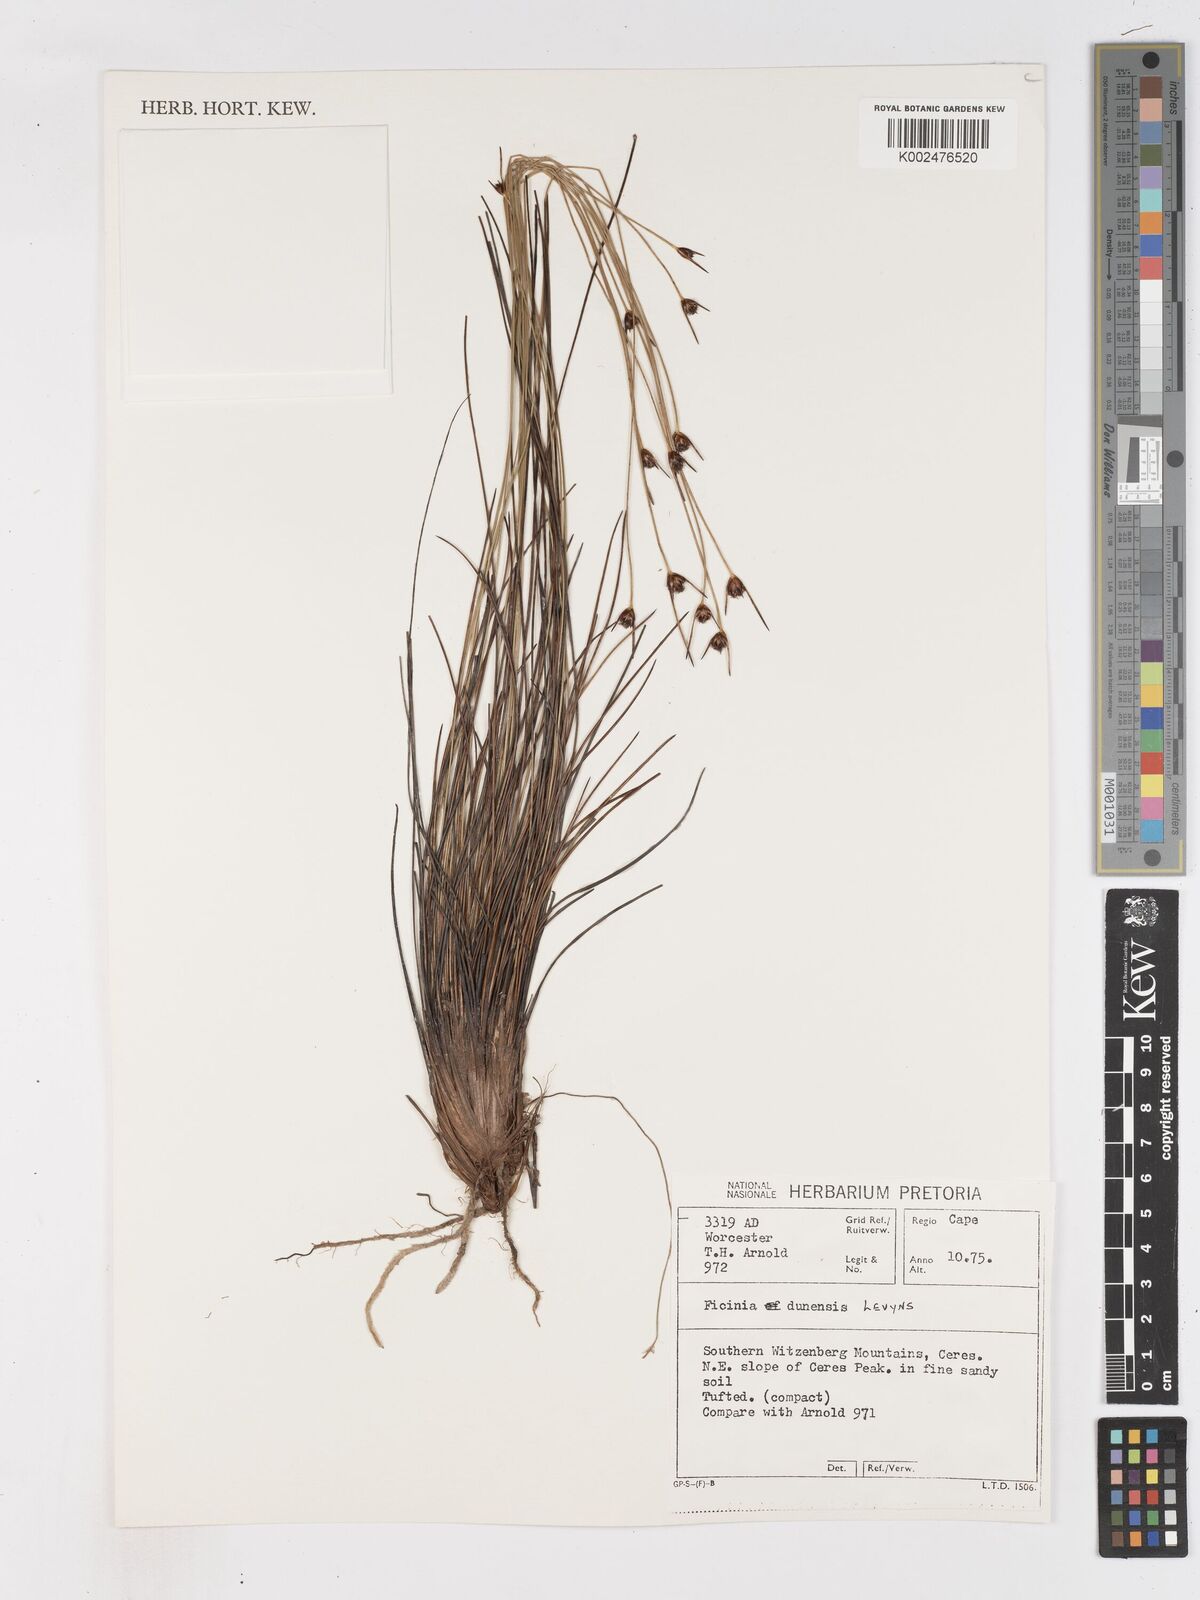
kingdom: Plantae
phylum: Tracheophyta
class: Liliopsida
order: Poales
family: Cyperaceae
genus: Ficinia
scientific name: Ficinia dunensis
